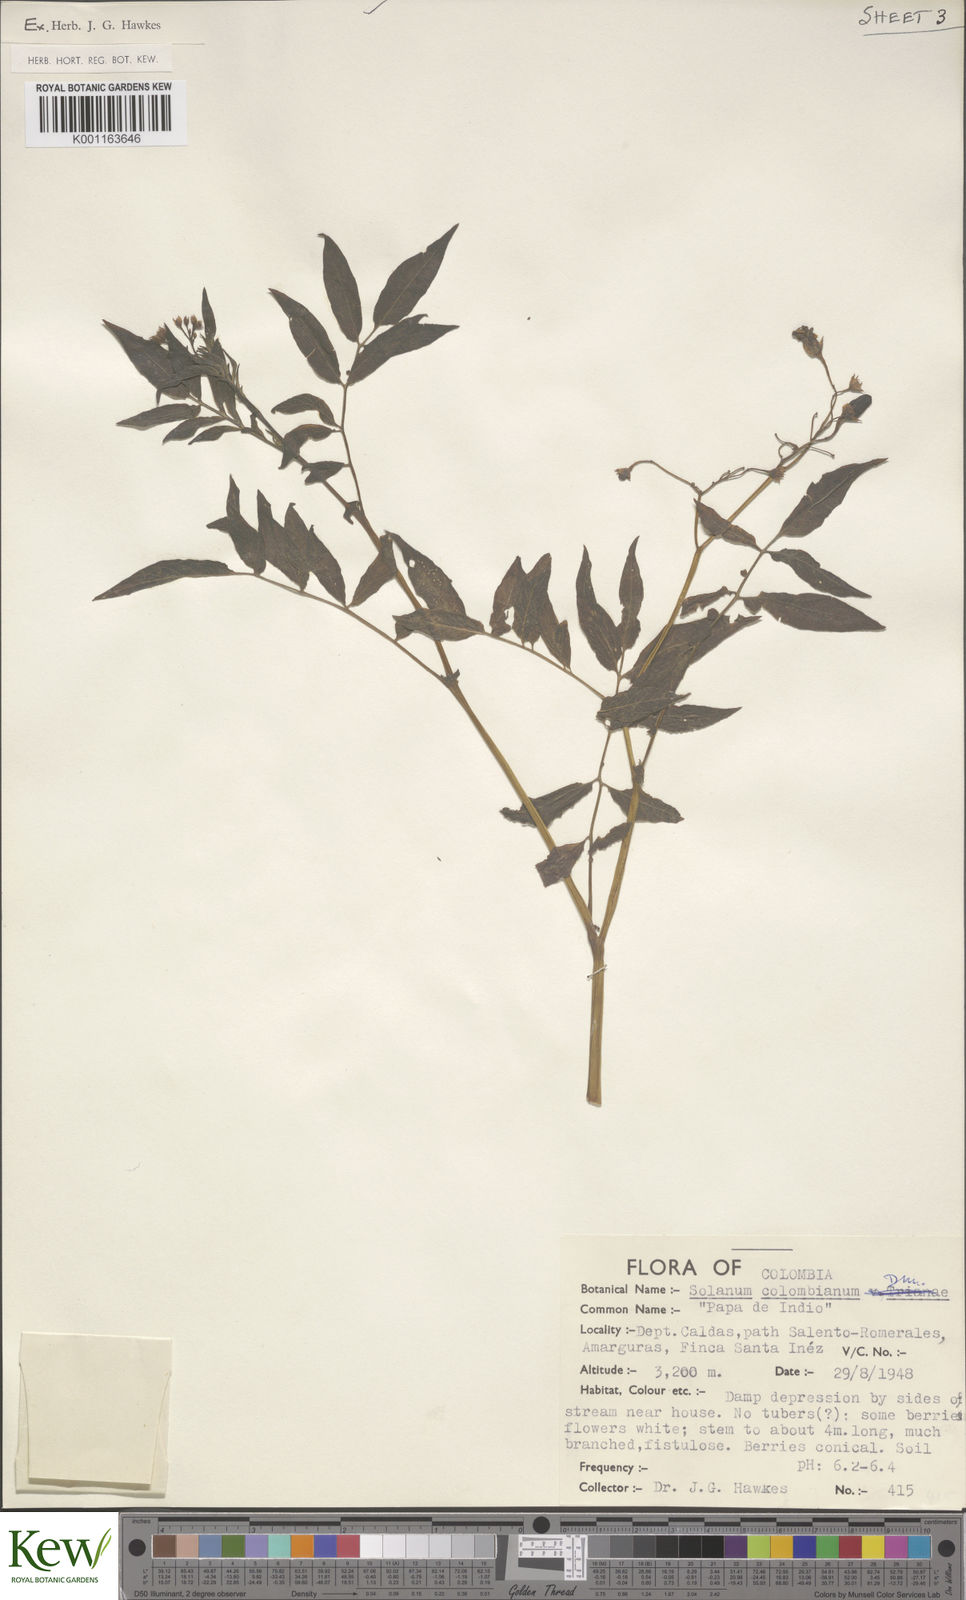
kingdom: Plantae
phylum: Tracheophyta
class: Magnoliopsida
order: Solanales
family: Solanaceae
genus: Solanum
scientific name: Solanum colombianum
